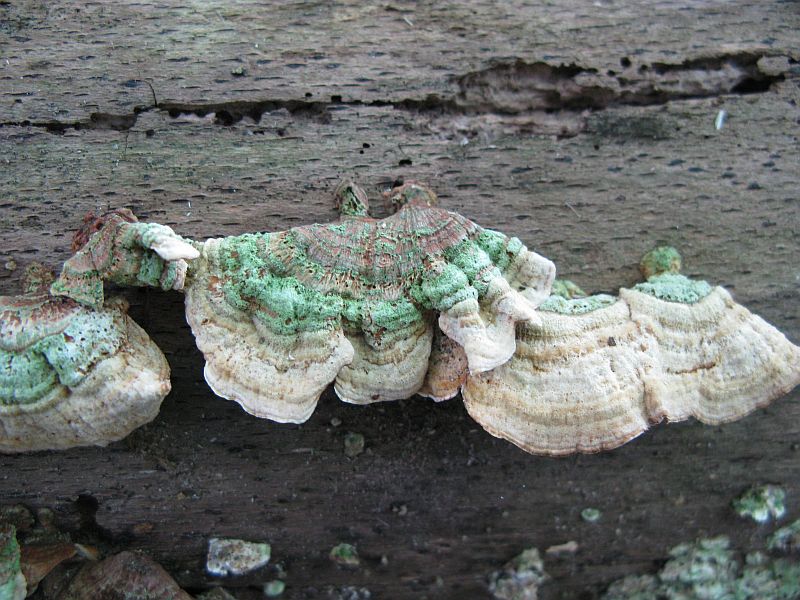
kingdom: Fungi
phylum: Basidiomycota
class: Agaricomycetes
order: Russulales
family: Stereaceae
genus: Stereum
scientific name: Stereum hirsutum
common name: håret lædersvamp
